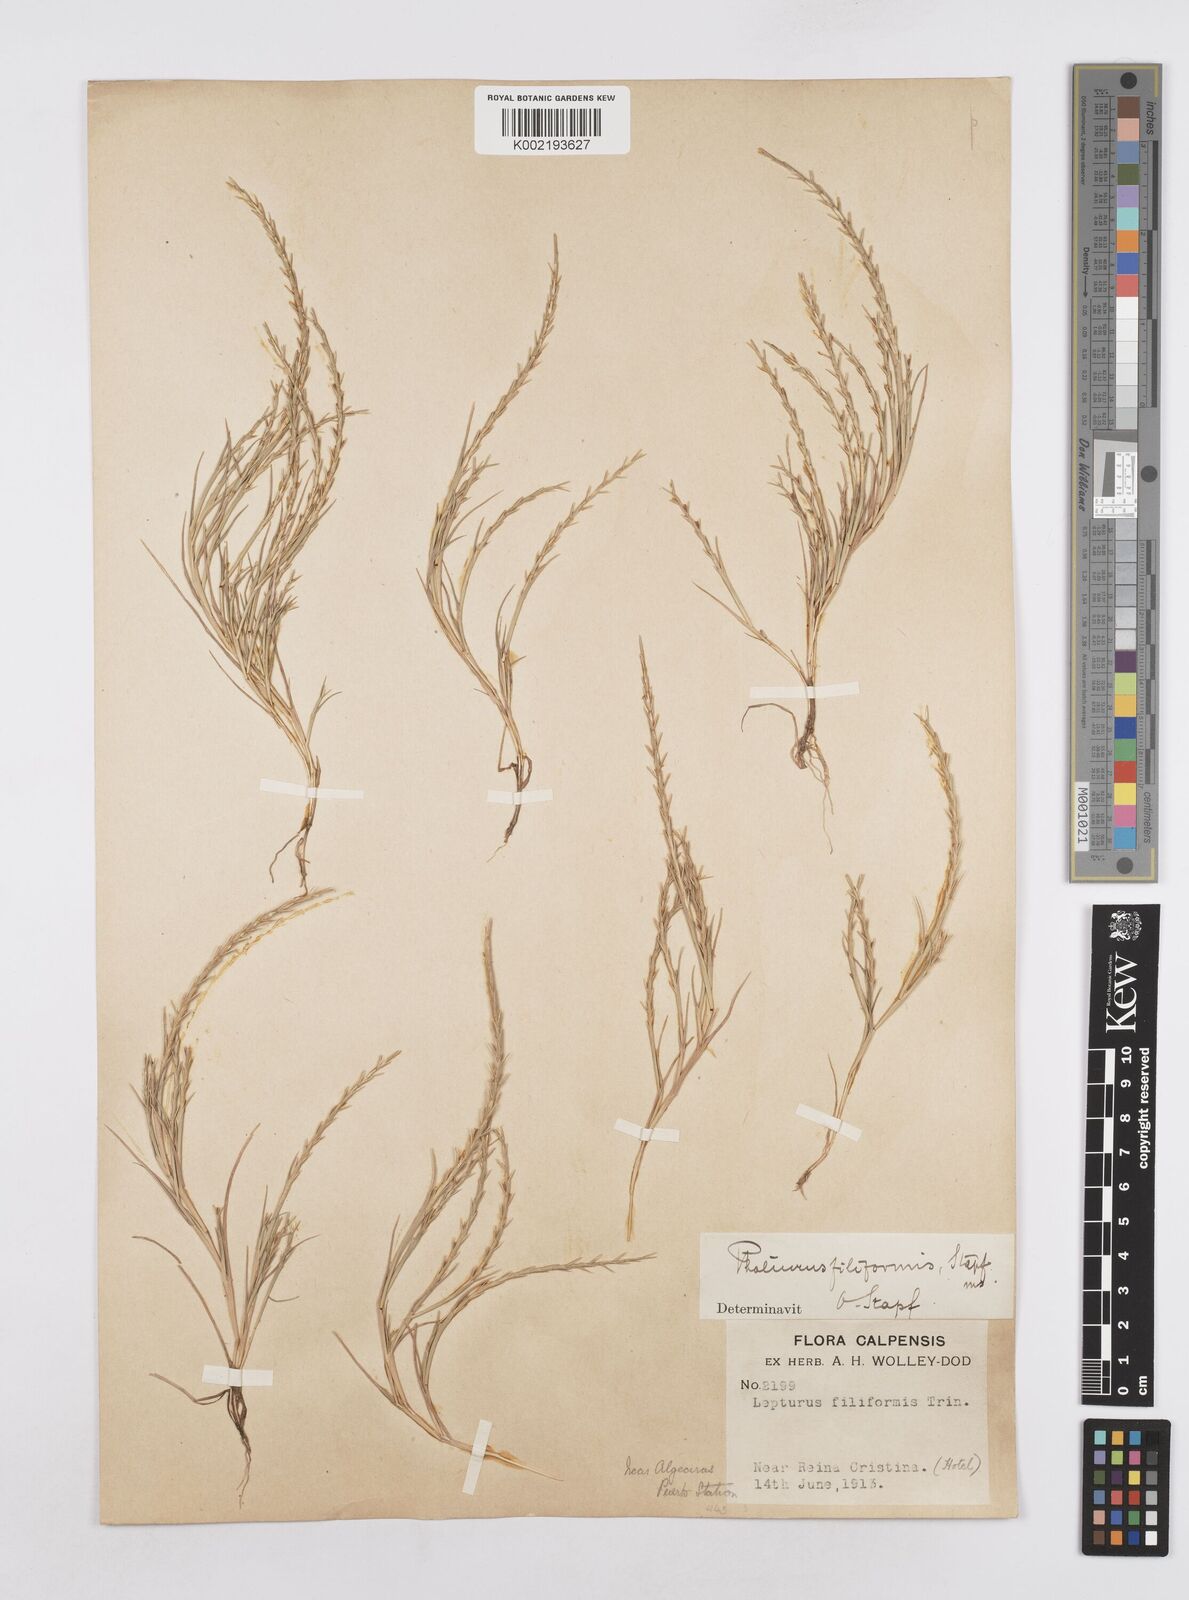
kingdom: Plantae
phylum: Tracheophyta
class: Liliopsida
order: Poales
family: Poaceae
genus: Parapholis
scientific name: Parapholis filiformis
